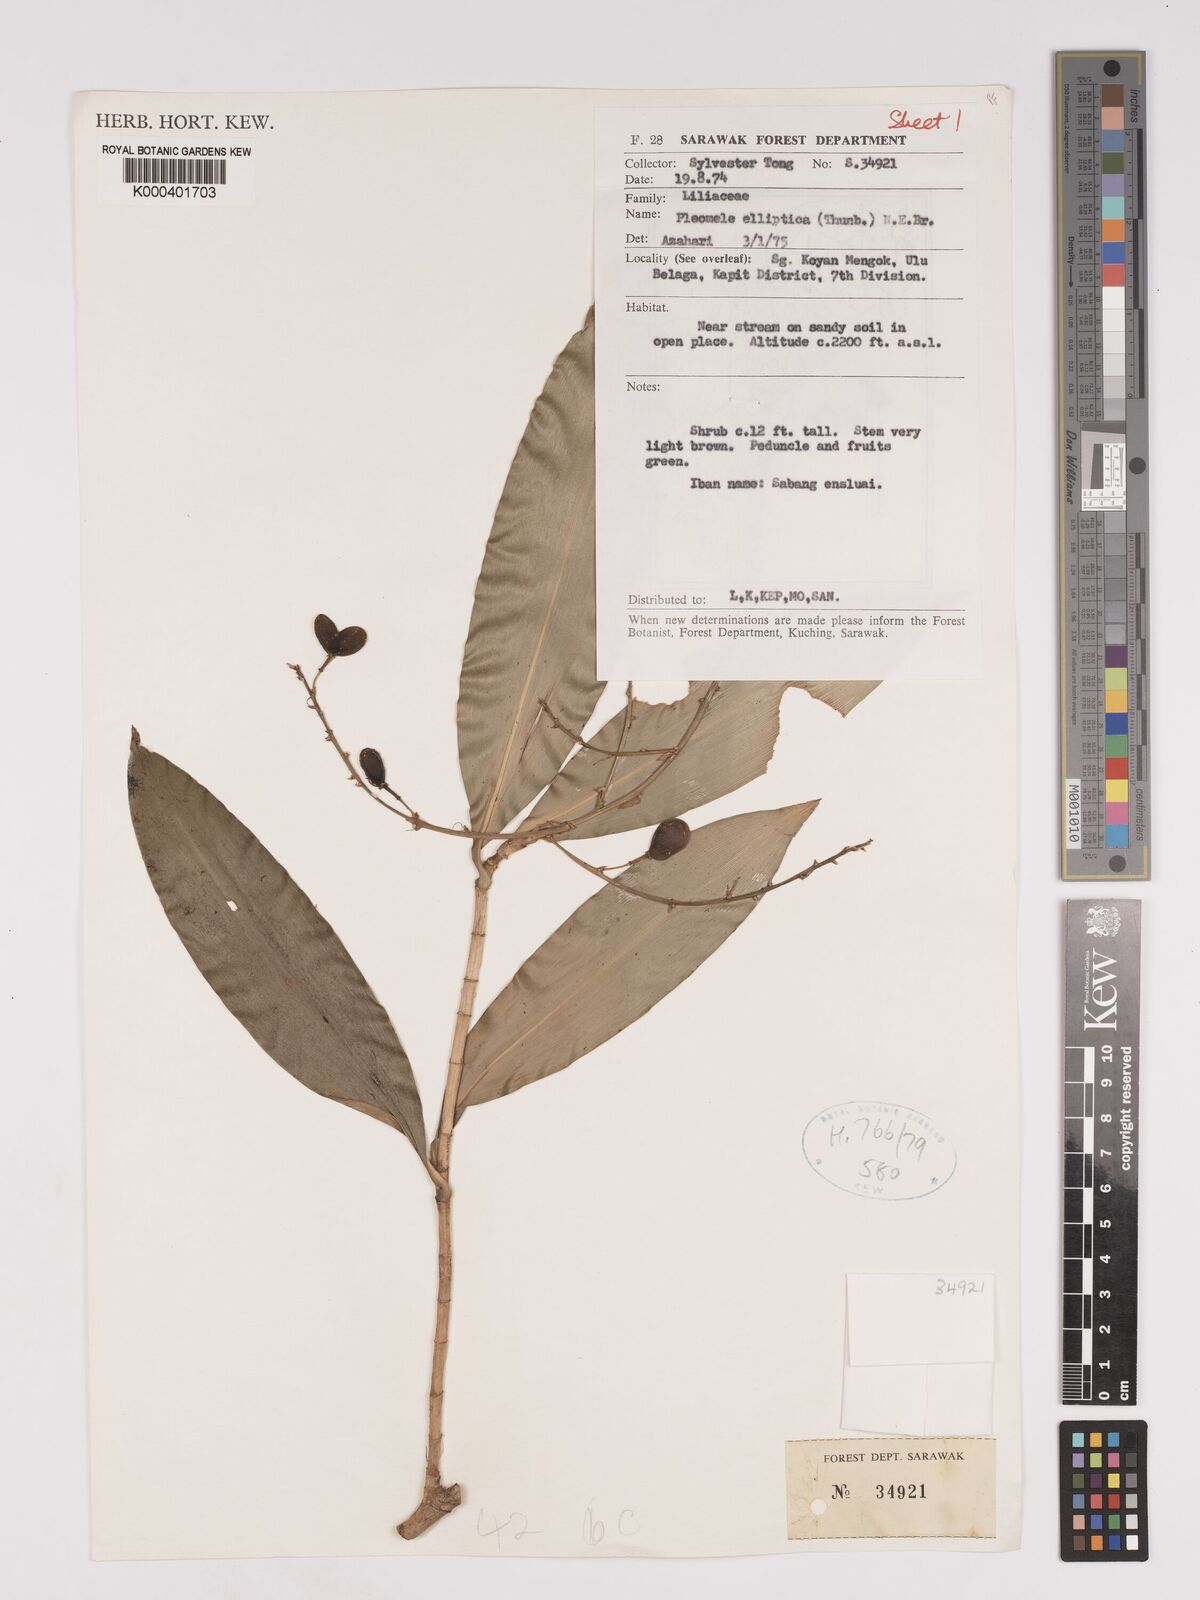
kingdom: Plantae
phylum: Tracheophyta
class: Liliopsida
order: Asparagales
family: Asparagaceae
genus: Dracaena
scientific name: Dracaena elliptica
